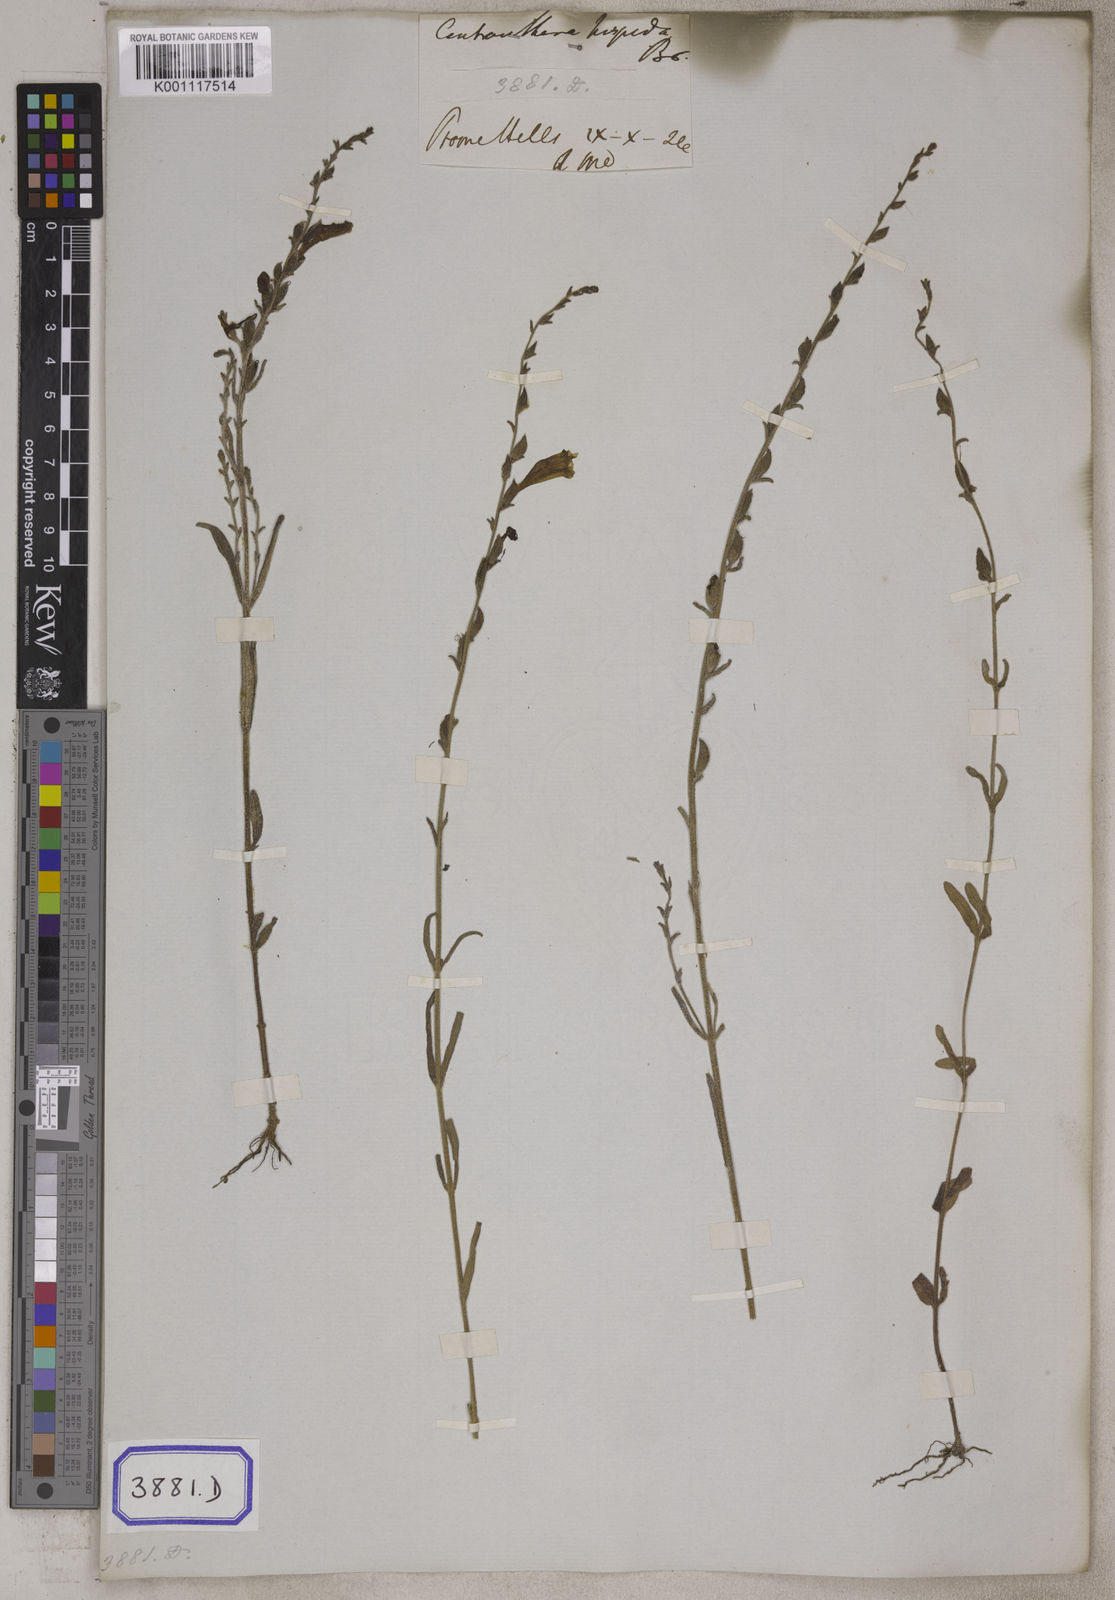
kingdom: Plantae
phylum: Tracheophyta
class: Magnoliopsida
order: Lamiales
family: Orobanchaceae
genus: Centranthera
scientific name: Centranthera hispida
